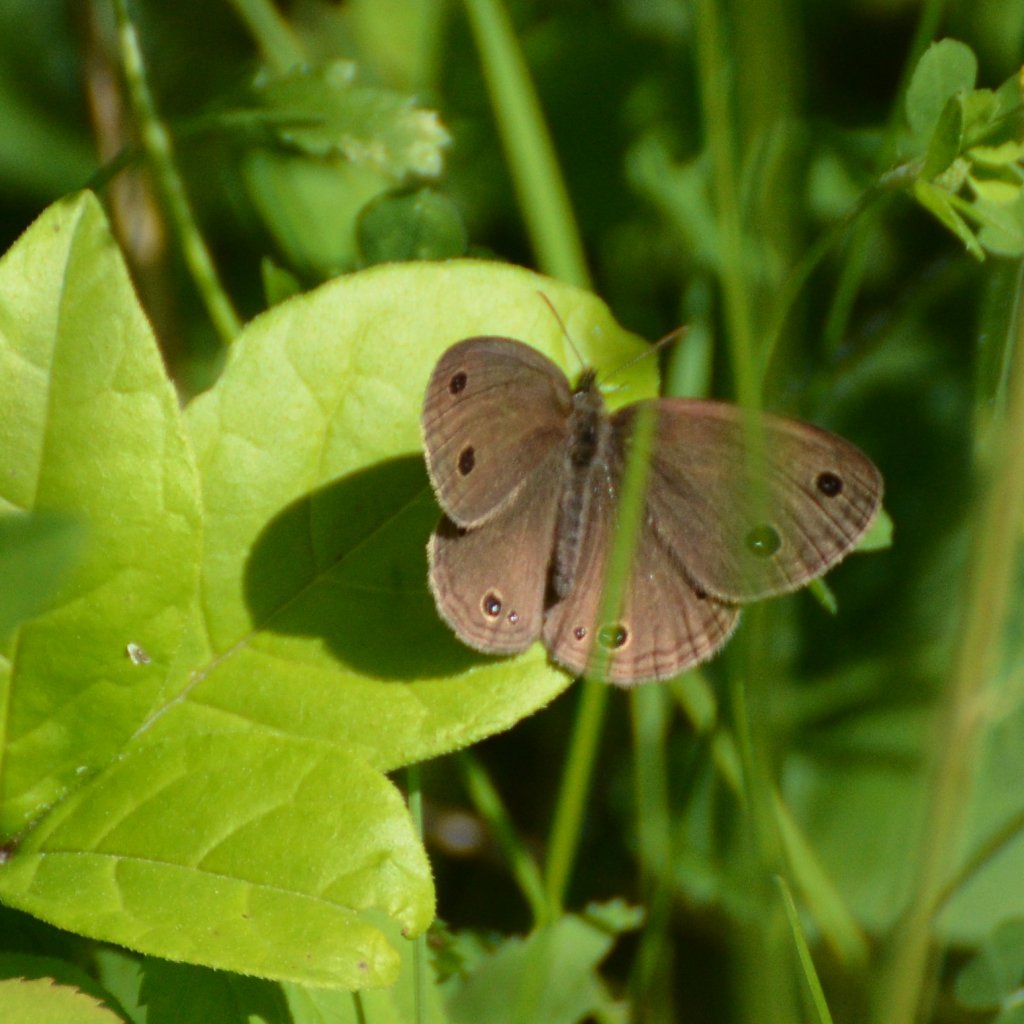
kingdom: Animalia
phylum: Arthropoda
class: Insecta
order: Lepidoptera
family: Nymphalidae
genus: Euptychia
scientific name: Euptychia cymela
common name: Little Wood Satyr
